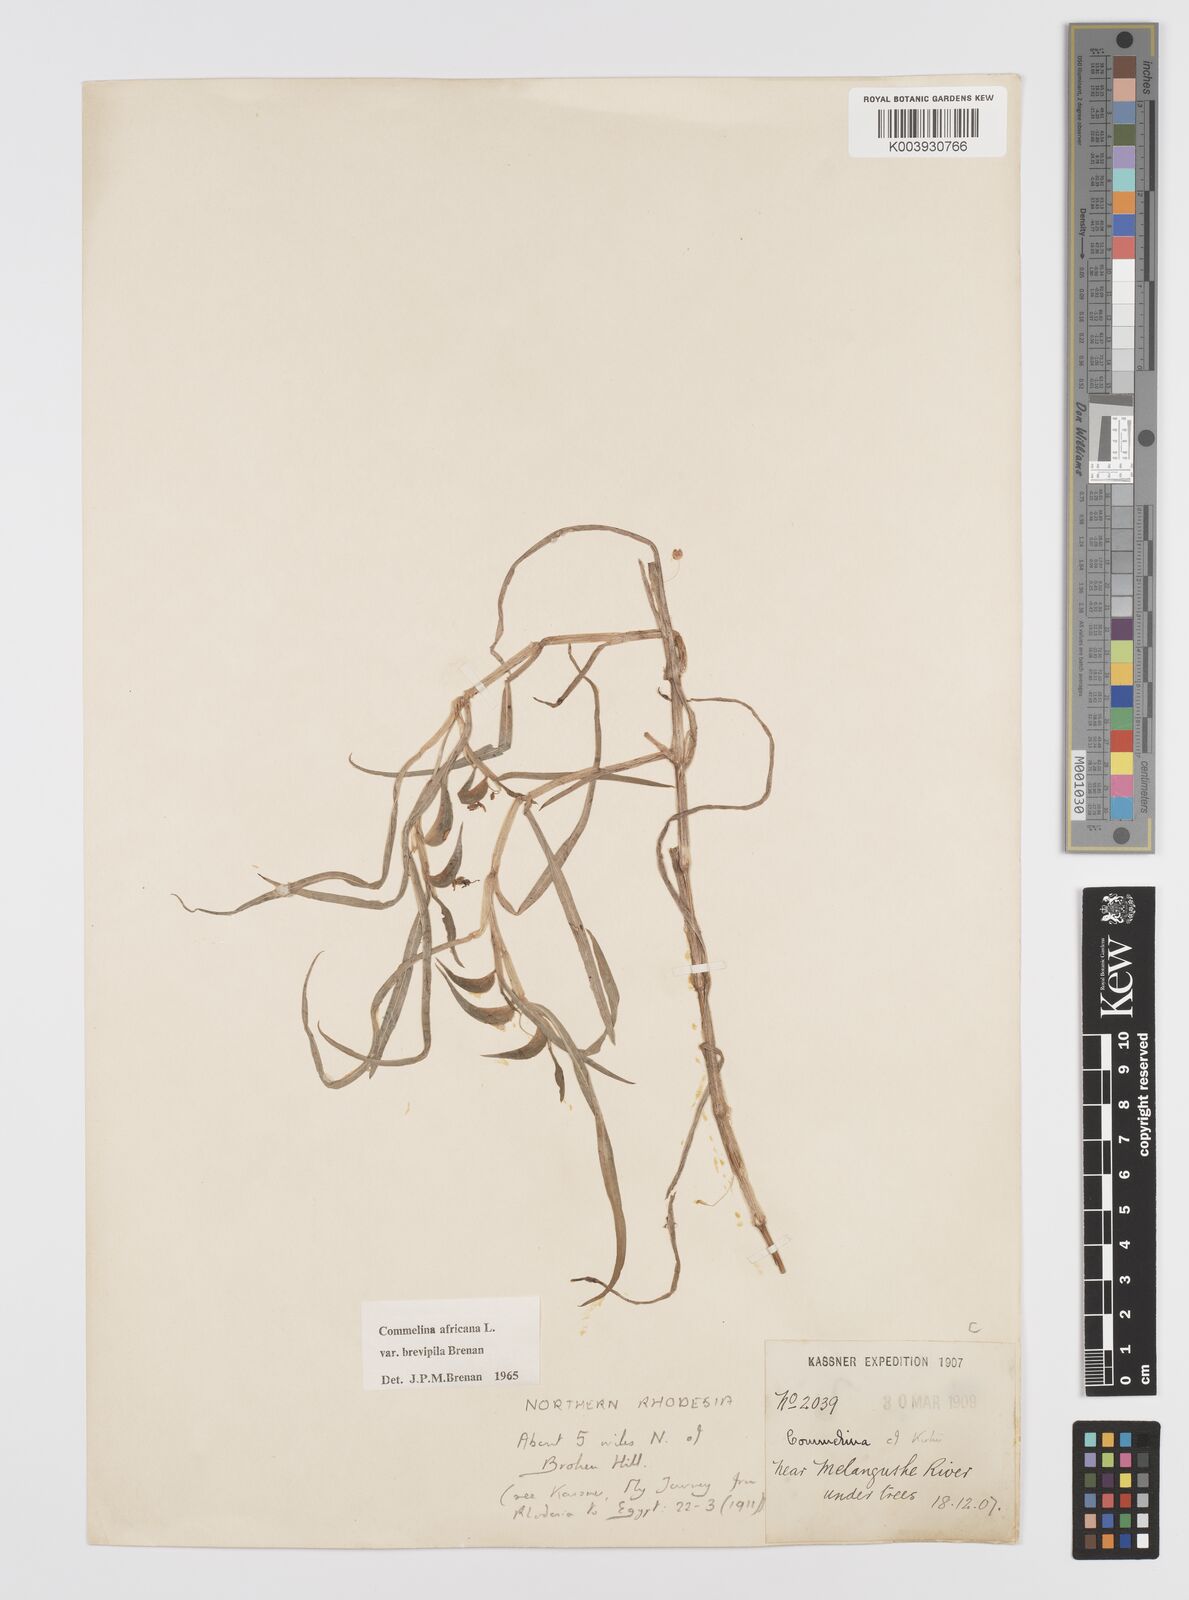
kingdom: Plantae
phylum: Tracheophyta
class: Liliopsida
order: Commelinales
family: Commelinaceae
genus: Commelina
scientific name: Commelina africana
